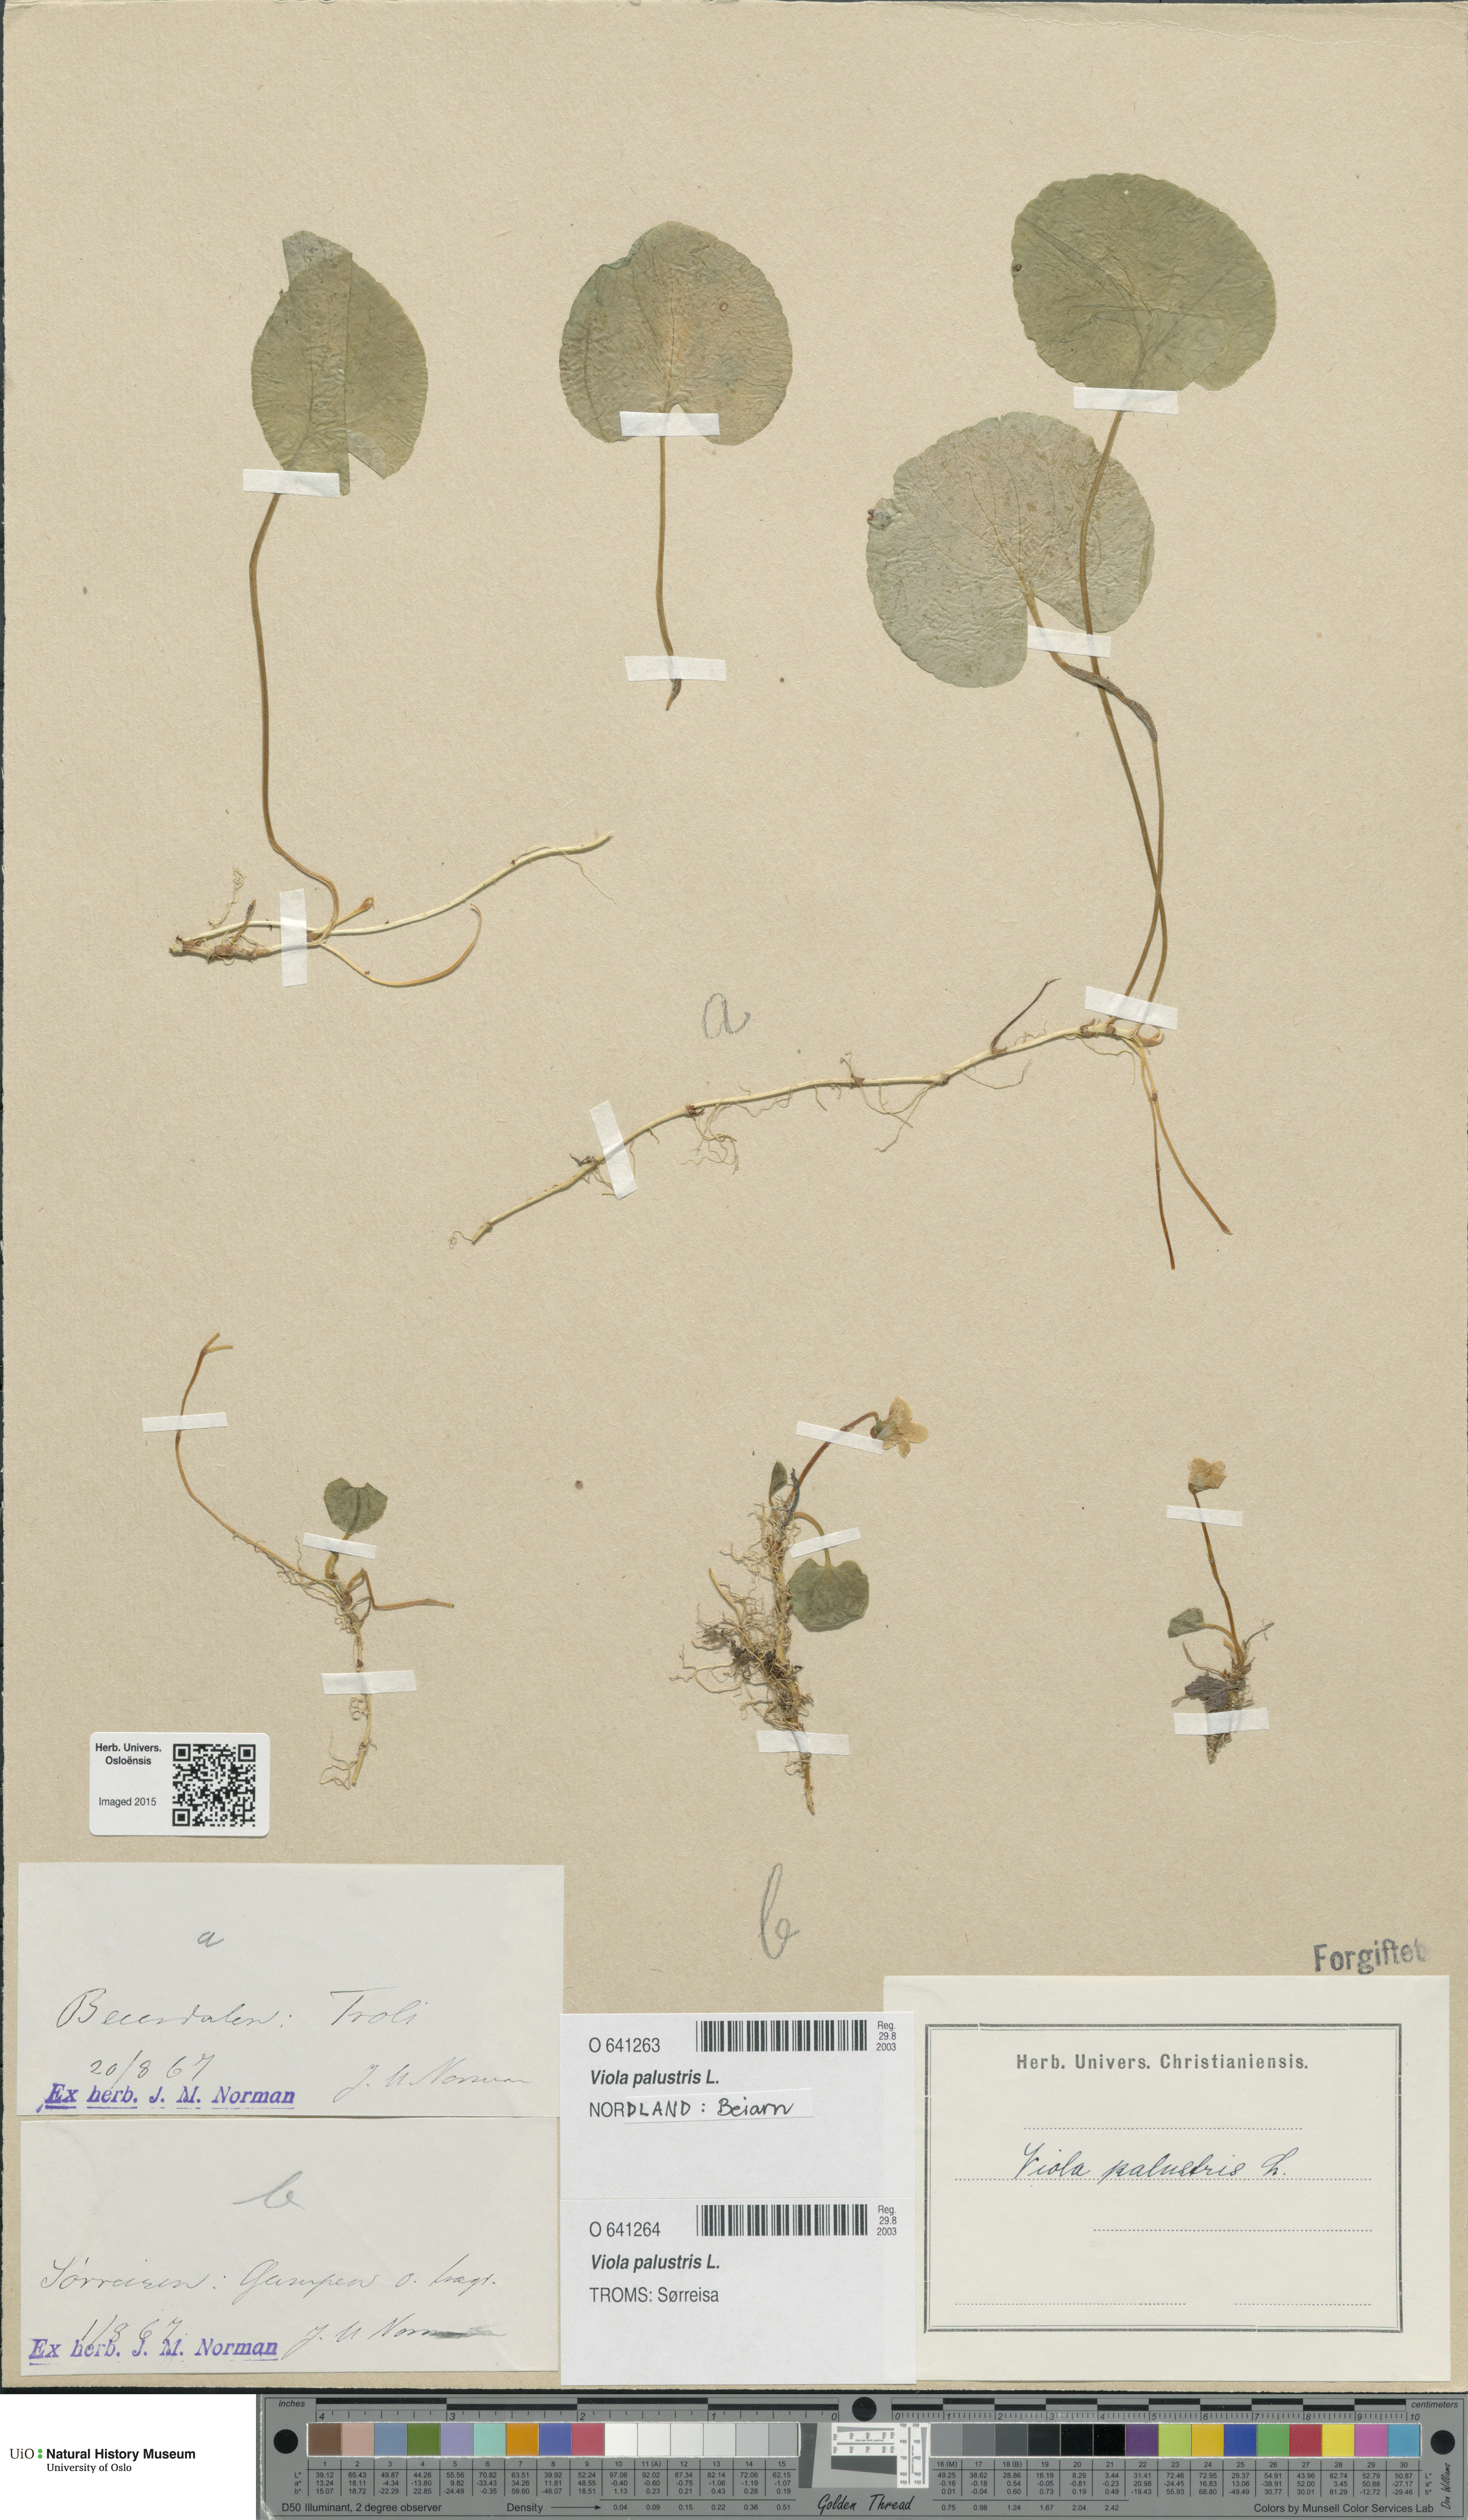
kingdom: Plantae
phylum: Tracheophyta
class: Magnoliopsida
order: Malpighiales
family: Violaceae
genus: Viola
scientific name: Viola palustris
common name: Marsh violet
